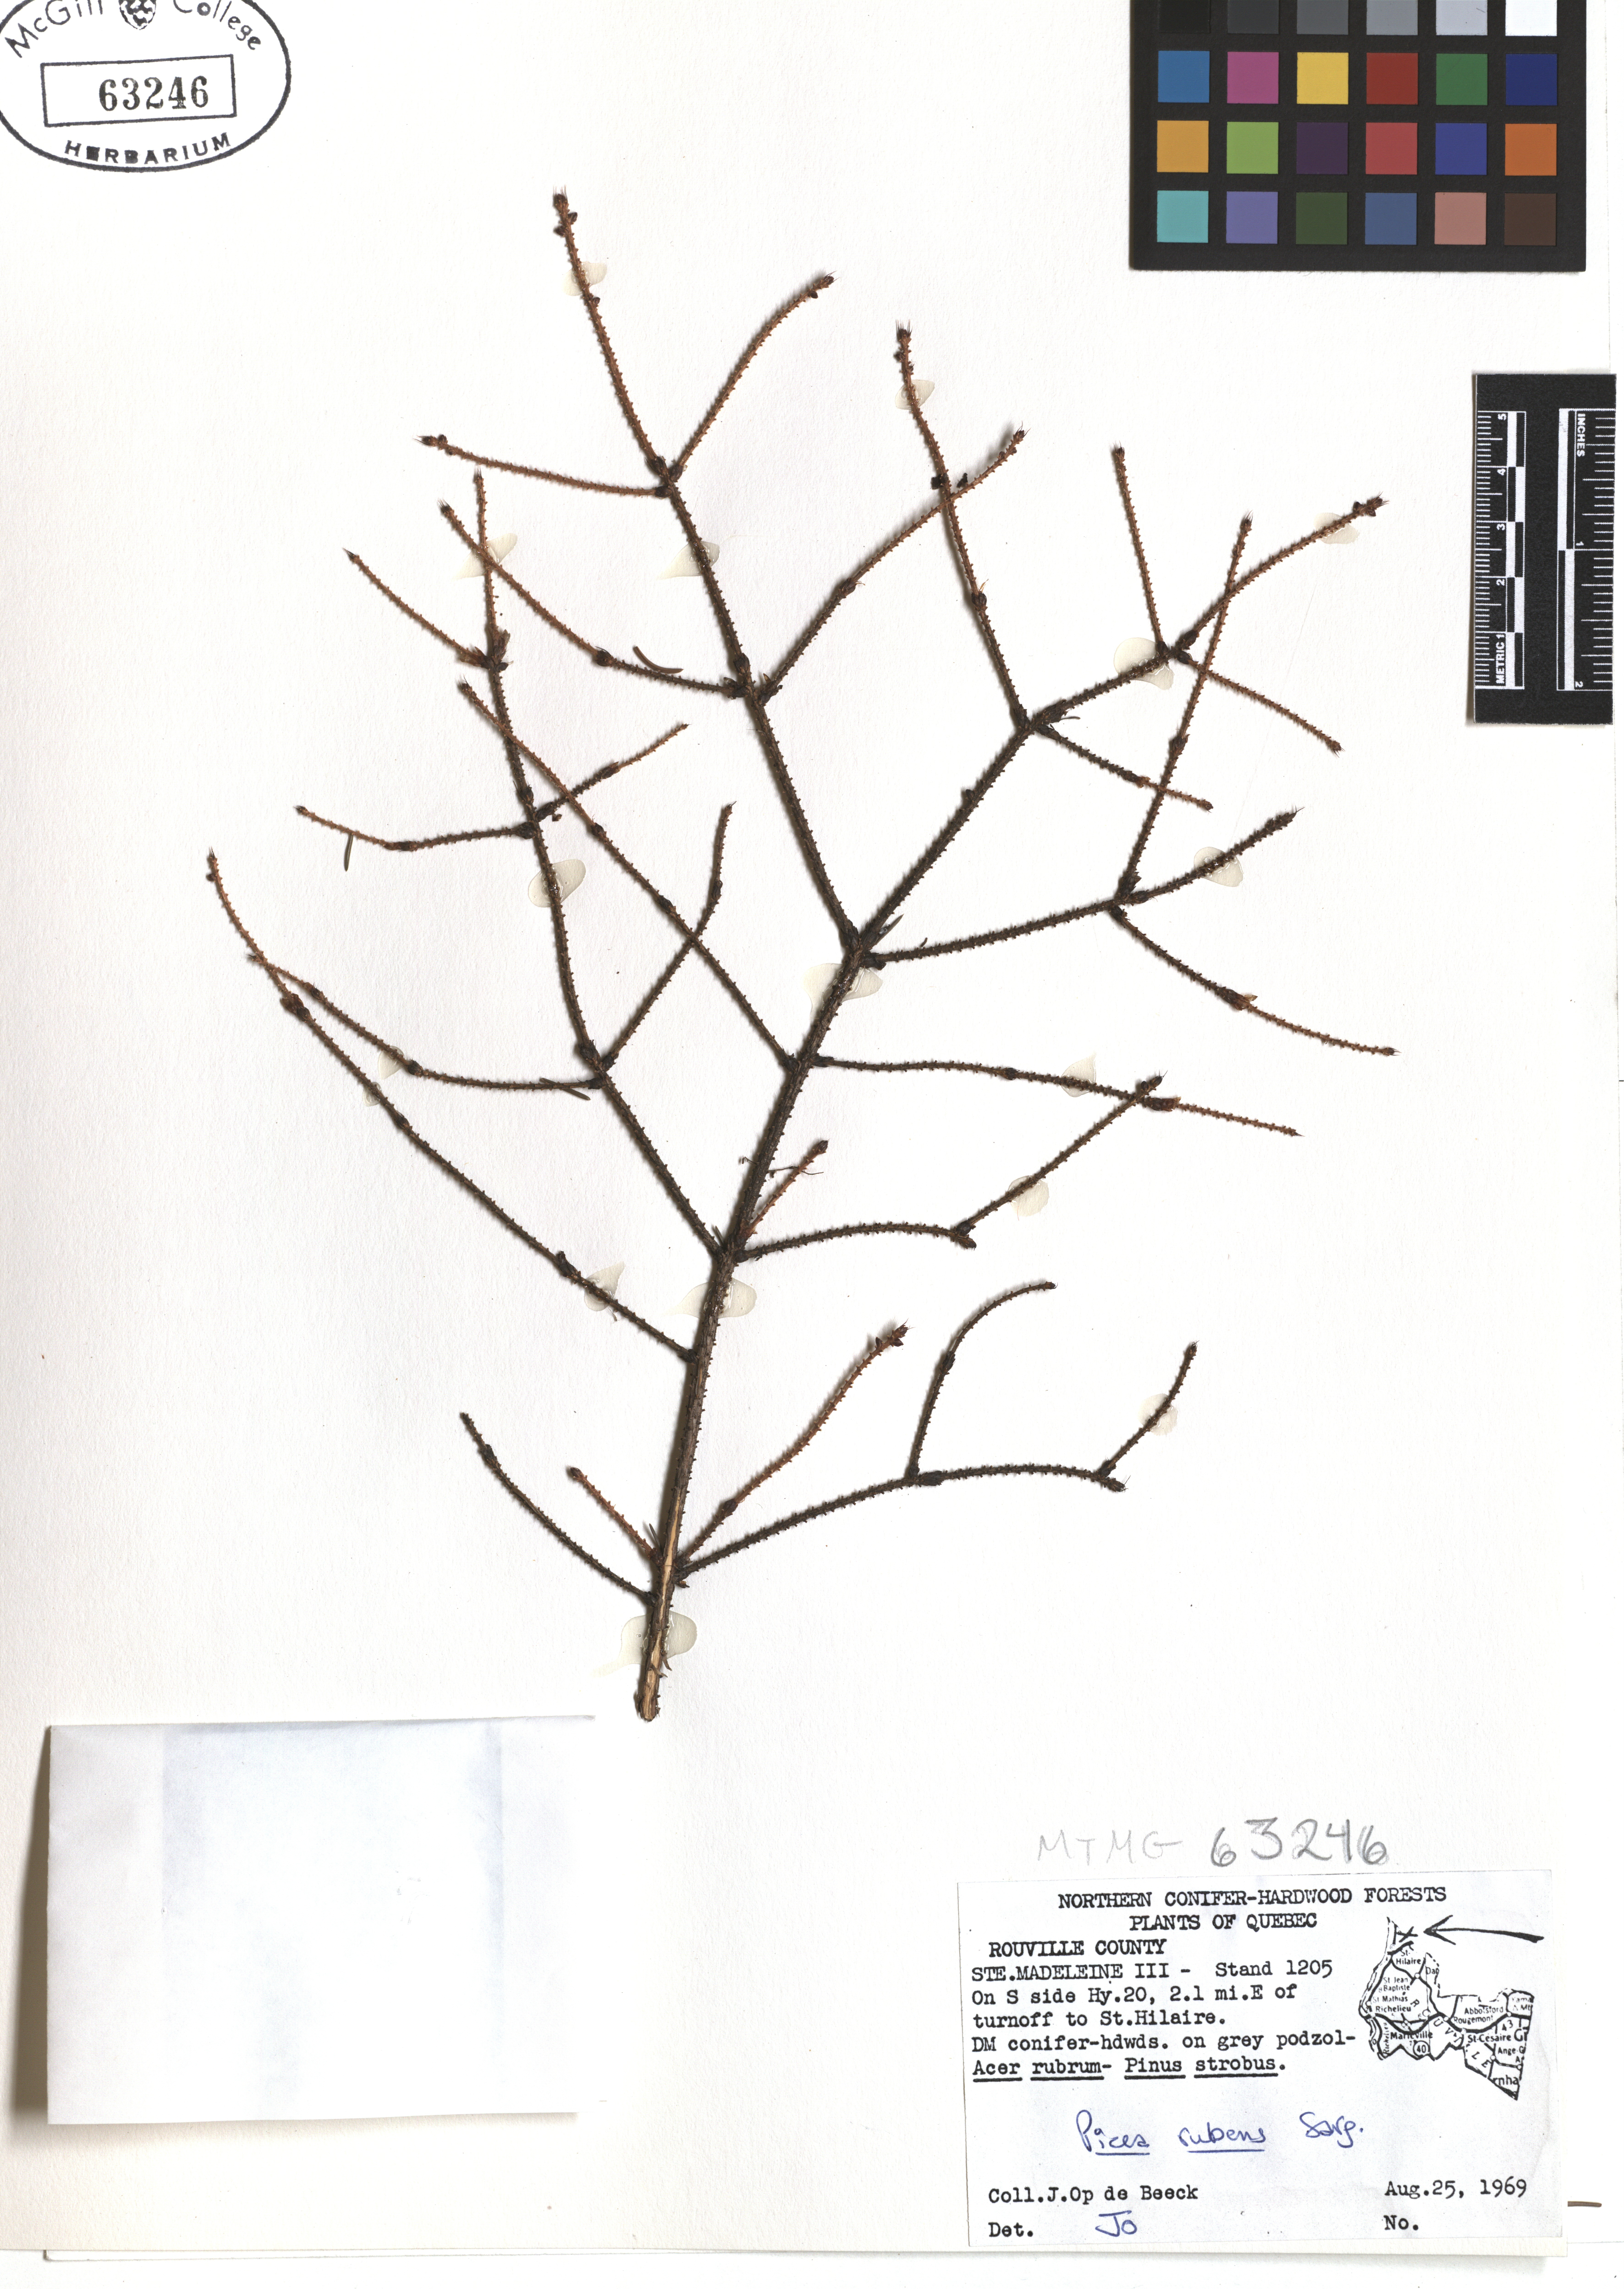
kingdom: Plantae
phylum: Tracheophyta
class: Pinopsida
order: Pinales
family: Pinaceae
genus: Picea
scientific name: Picea rubens
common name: Red spruce
